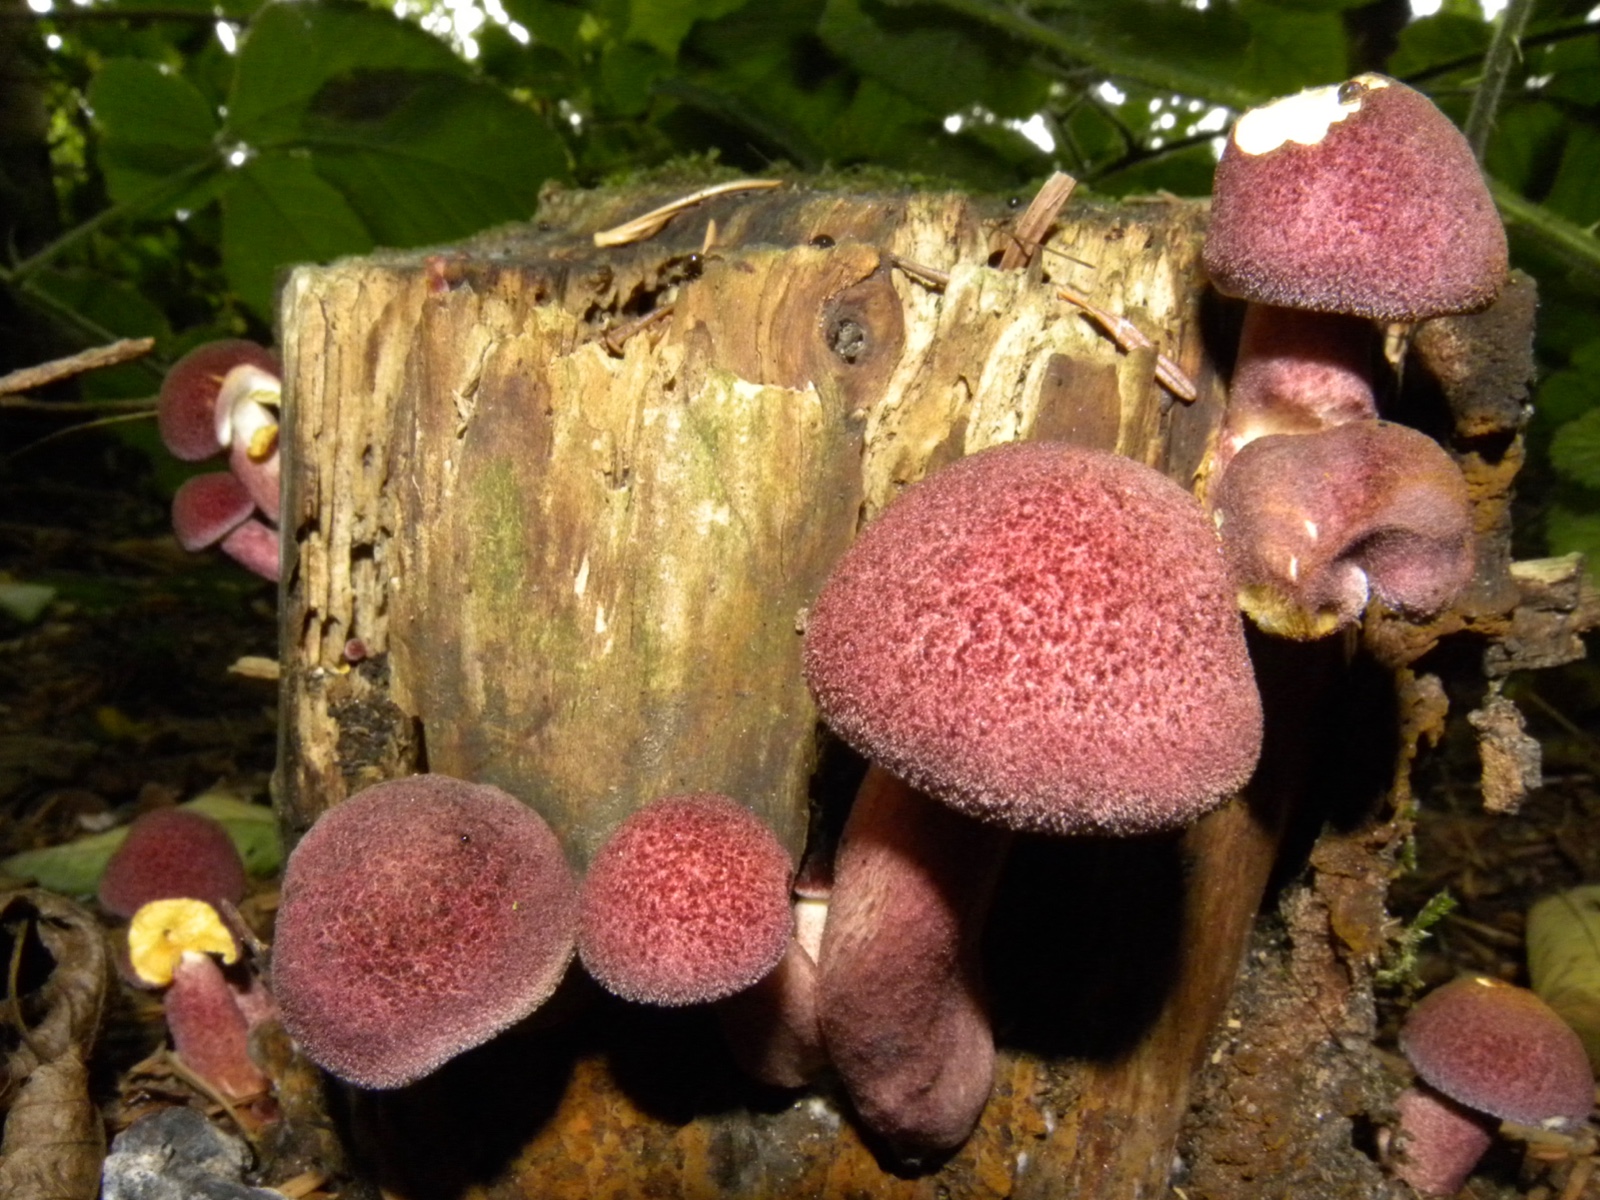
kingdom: Fungi
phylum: Basidiomycota
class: Agaricomycetes
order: Agaricales
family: Tricholomataceae
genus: Tricholomopsis
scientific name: Tricholomopsis rutilans
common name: purpur-væbnerhat
